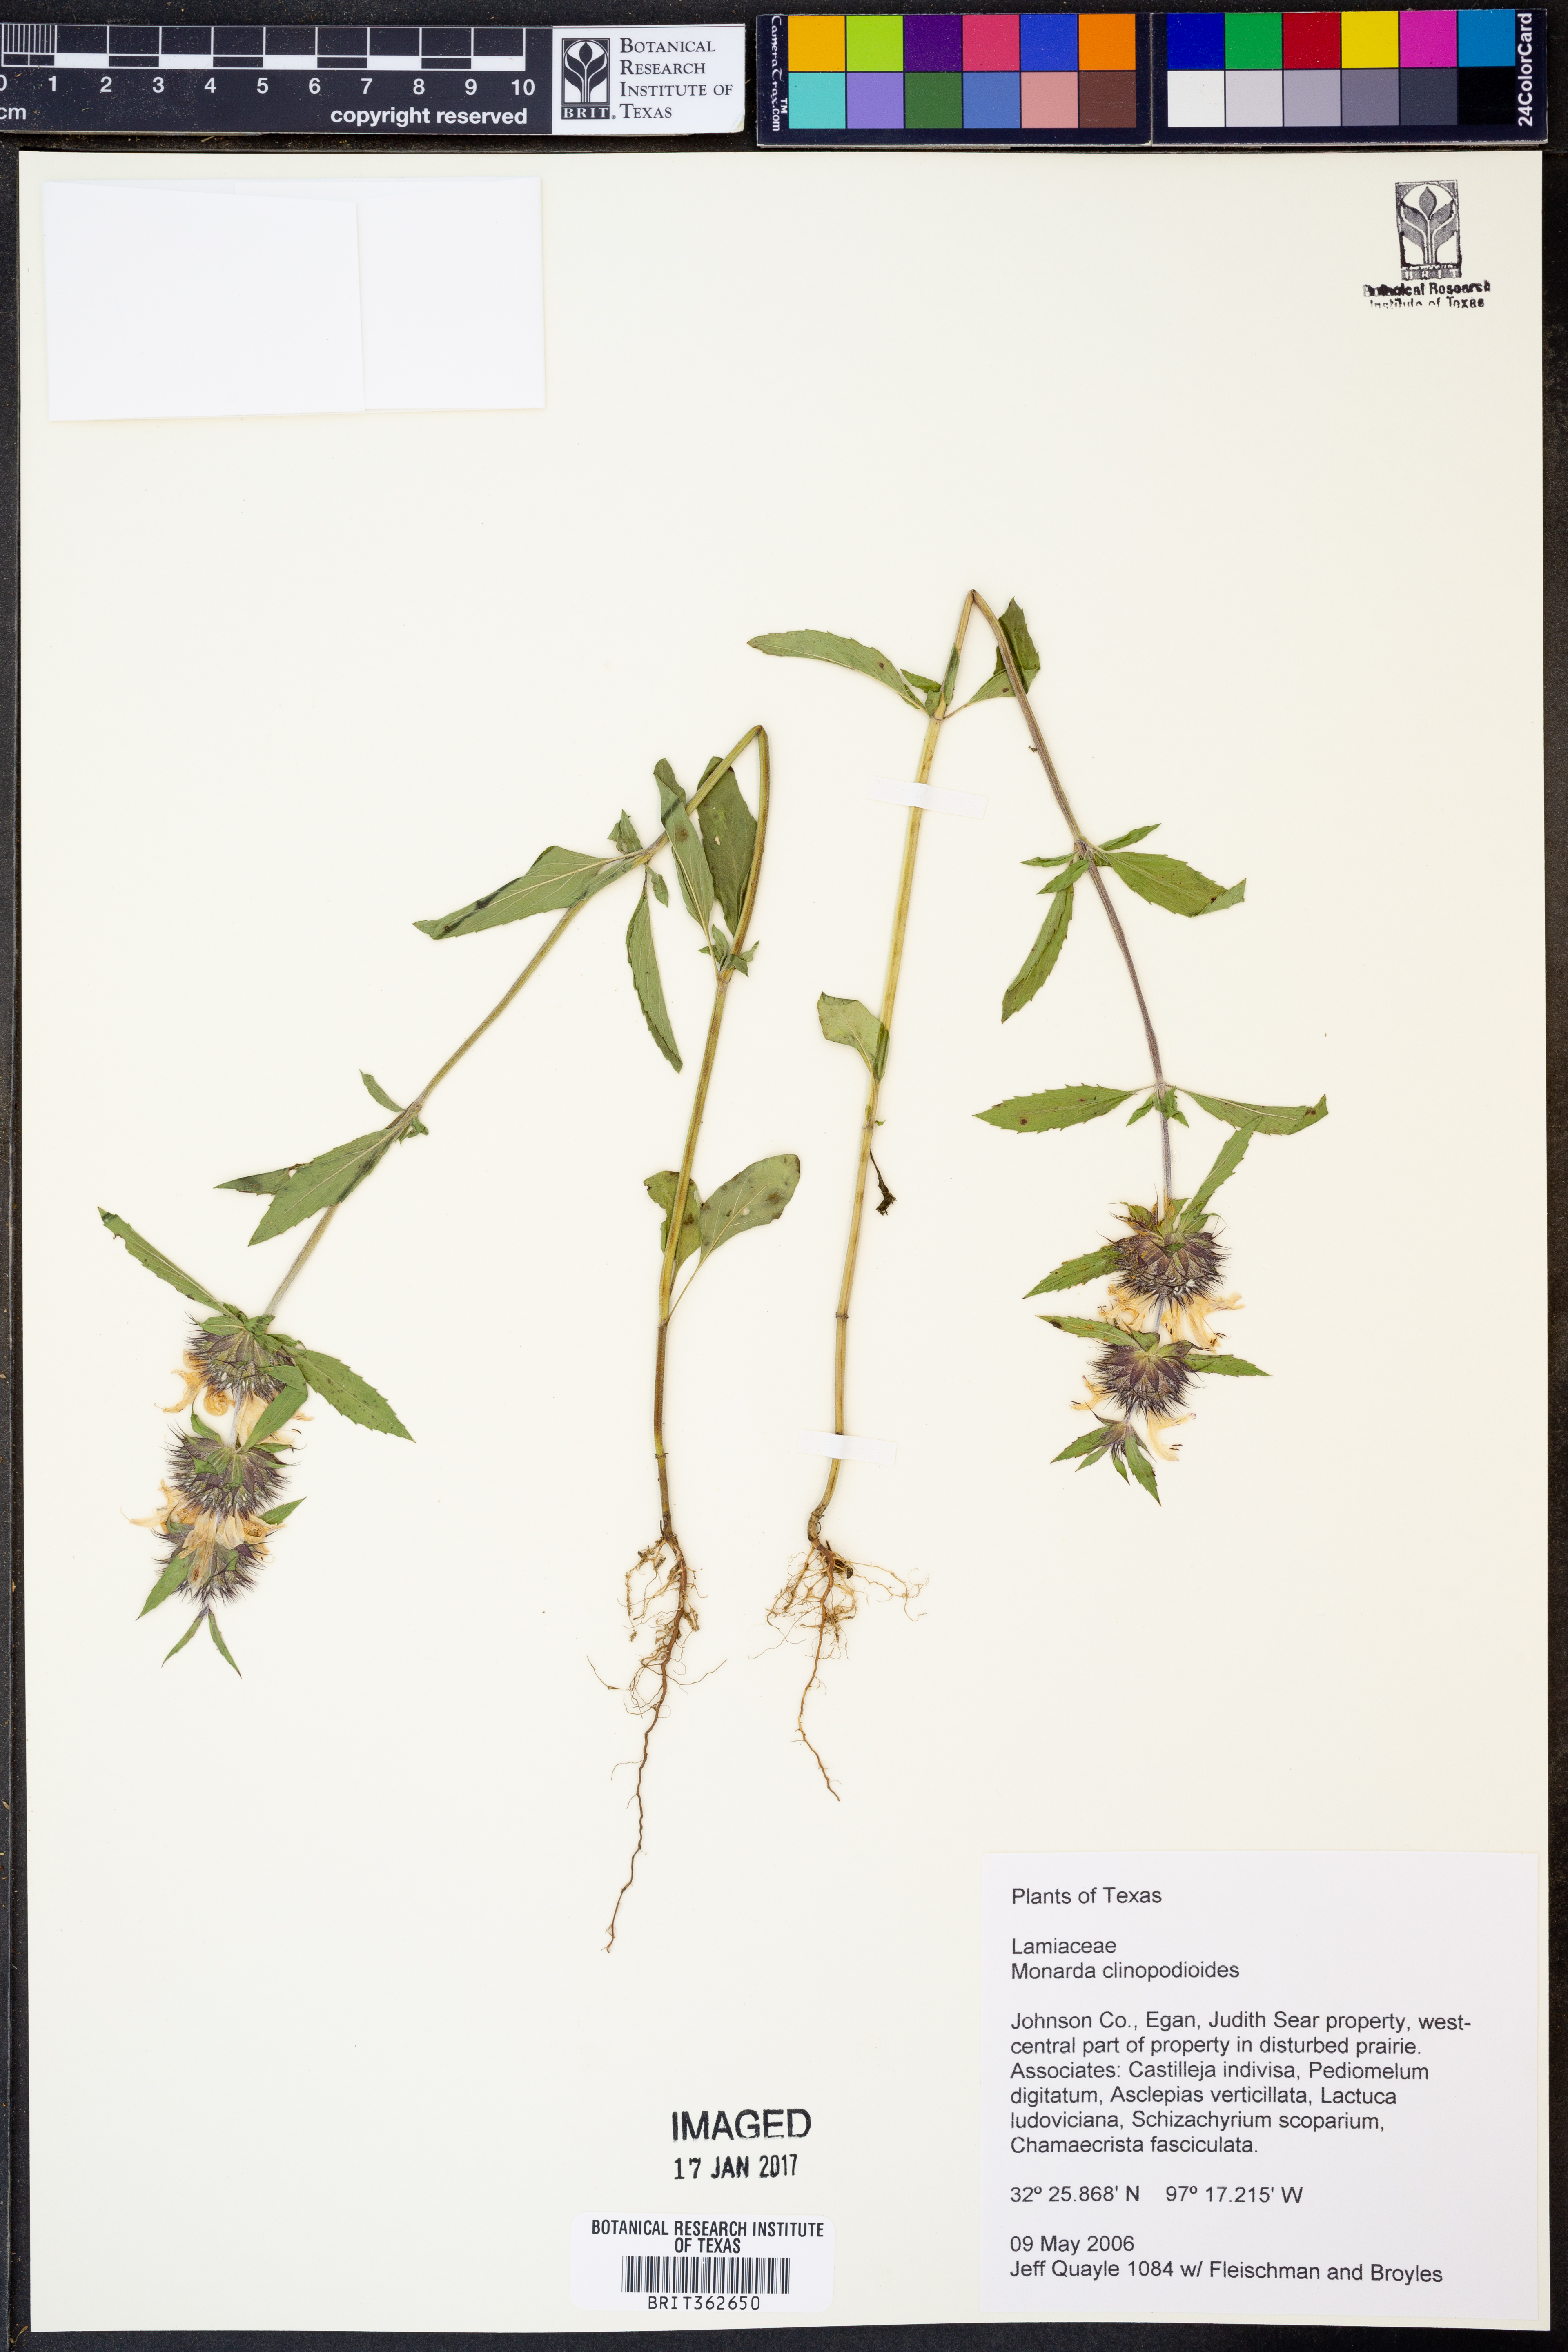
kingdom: Plantae
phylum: Tracheophyta
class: Magnoliopsida
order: Lamiales
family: Lamiaceae
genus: Monarda
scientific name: Monarda clinopodioides
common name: Basil beebalm
